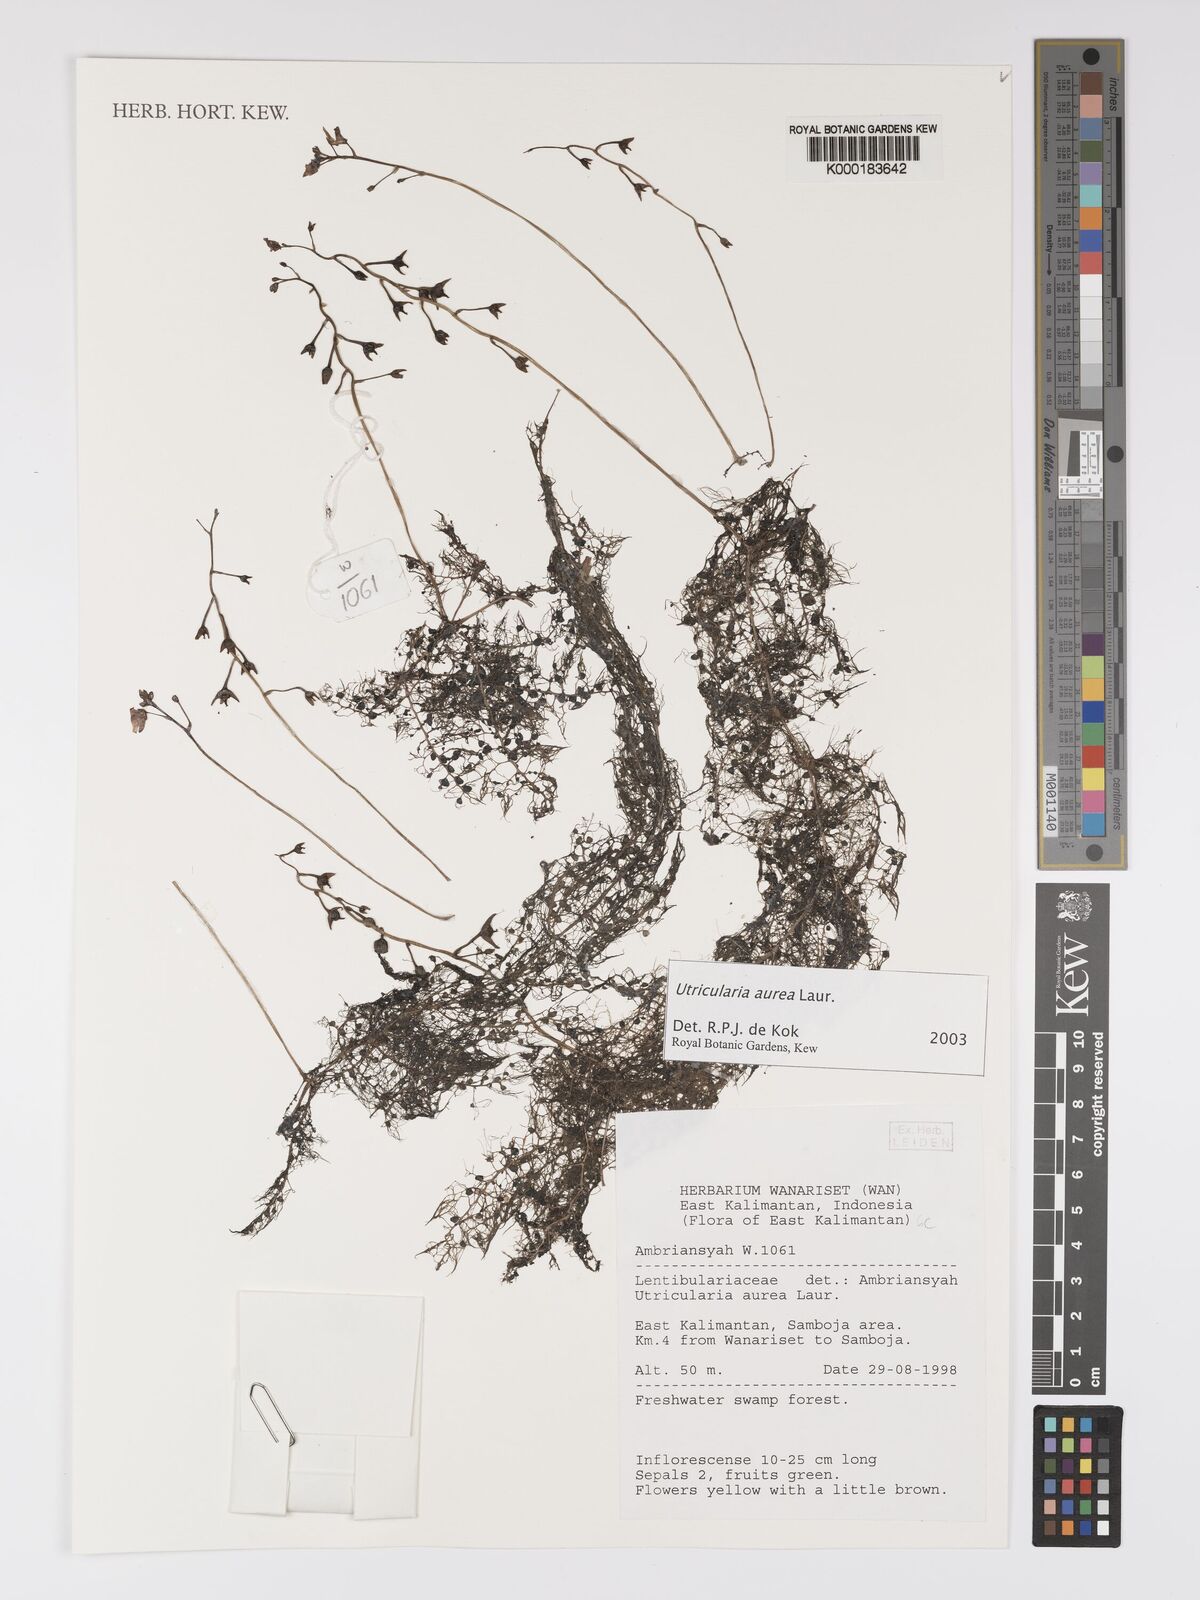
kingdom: Plantae
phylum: Tracheophyta
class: Magnoliopsida
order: Lamiales
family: Lentibulariaceae
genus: Utricularia
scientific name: Utricularia
